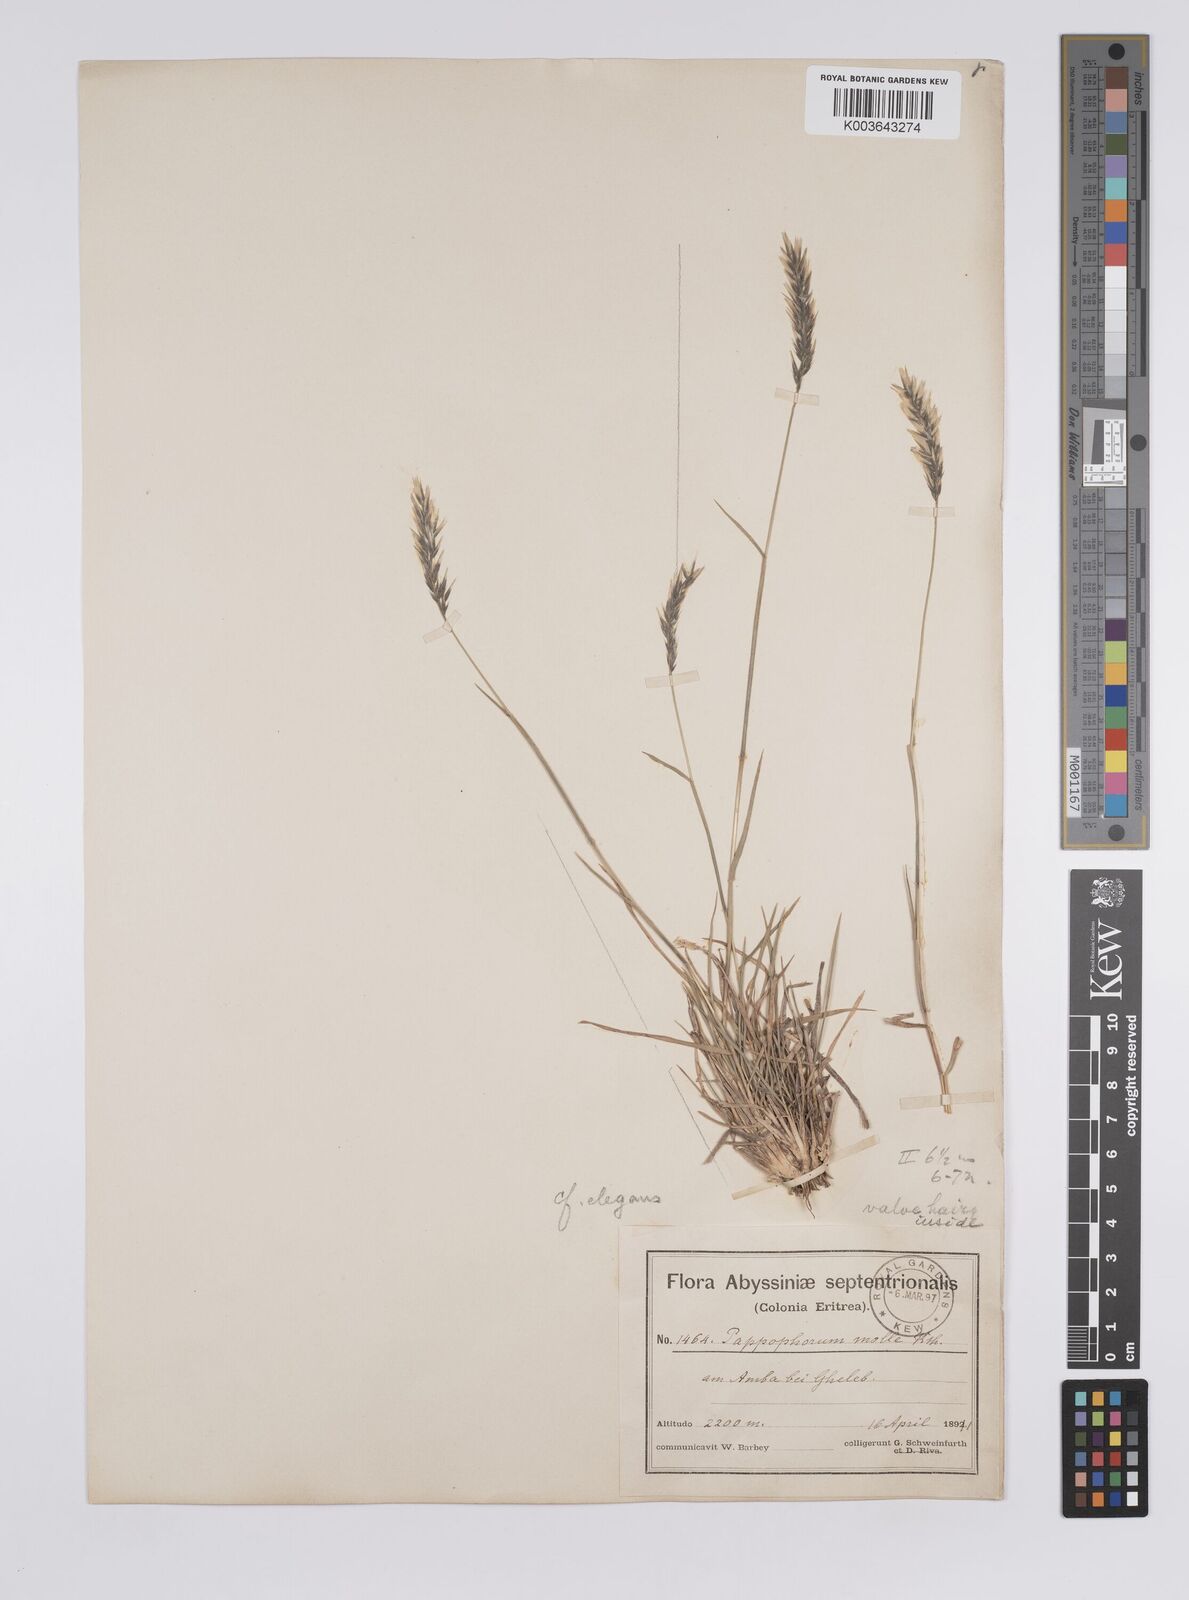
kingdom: Plantae
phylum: Tracheophyta
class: Liliopsida
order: Poales
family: Poaceae
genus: Enneapogon
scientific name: Enneapogon persicus
